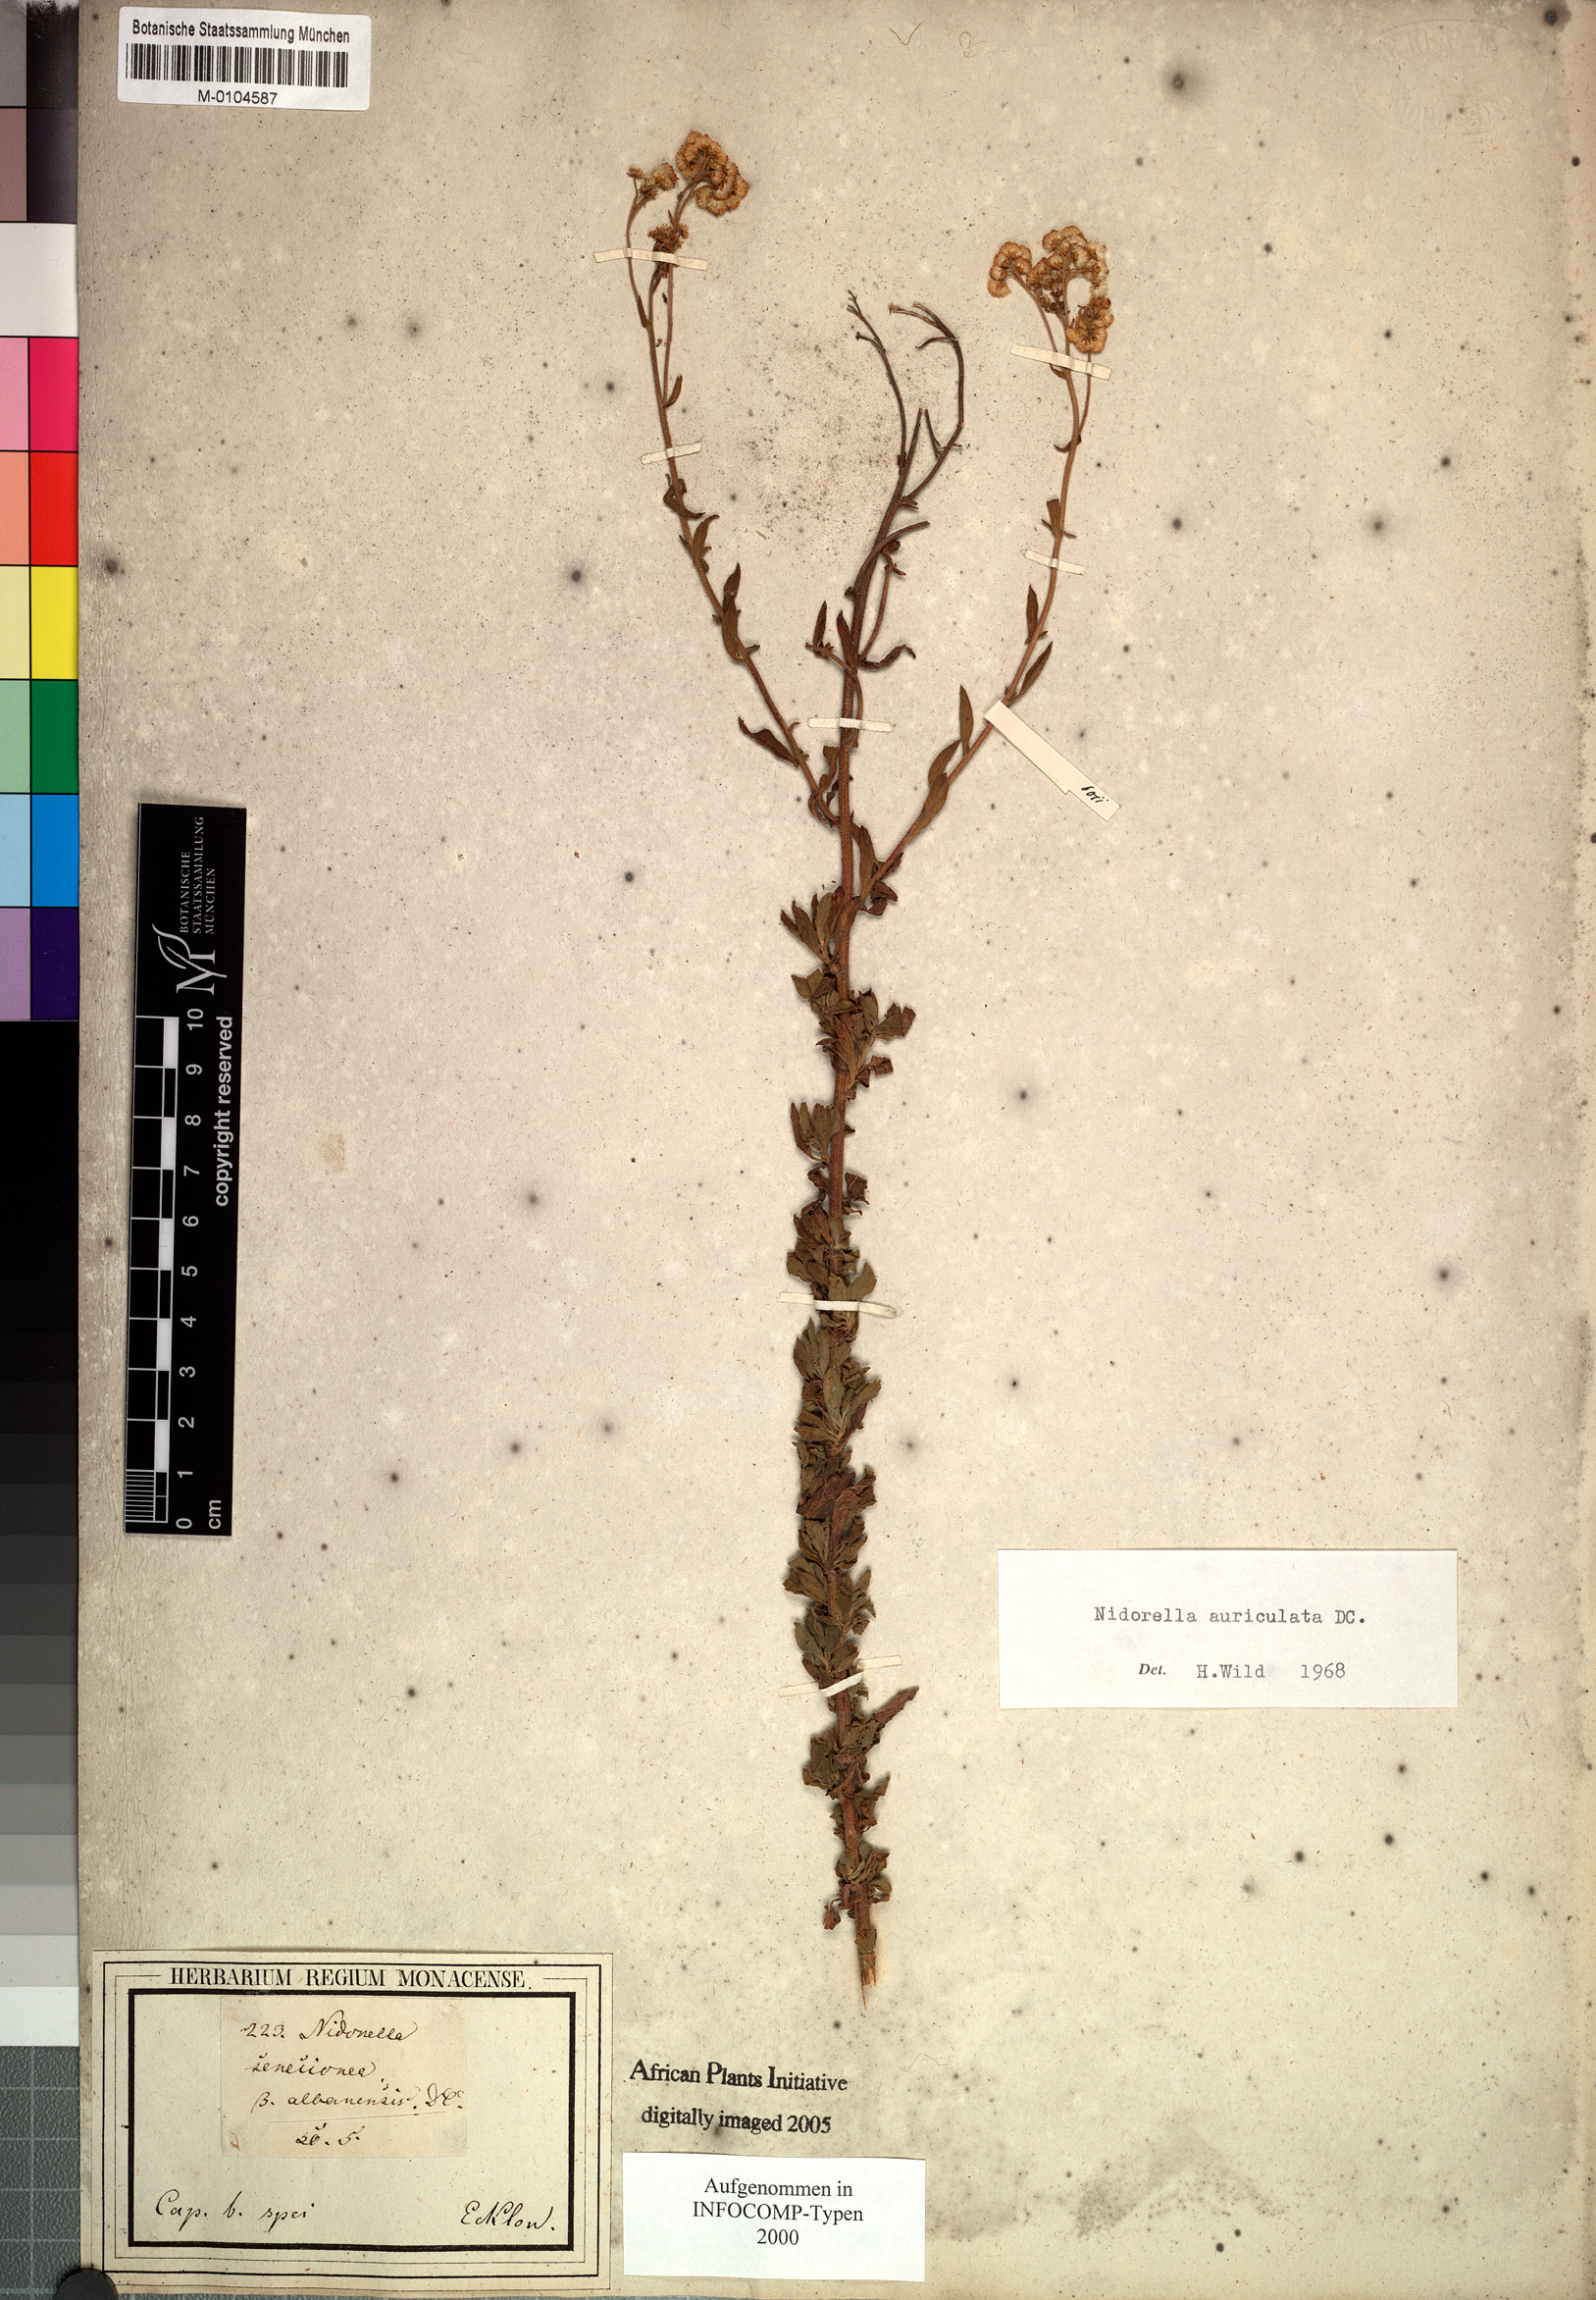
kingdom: Plantae
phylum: Tracheophyta
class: Magnoliopsida
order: Asterales
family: Asteraceae
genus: Nidorella
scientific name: Nidorella auriculata
